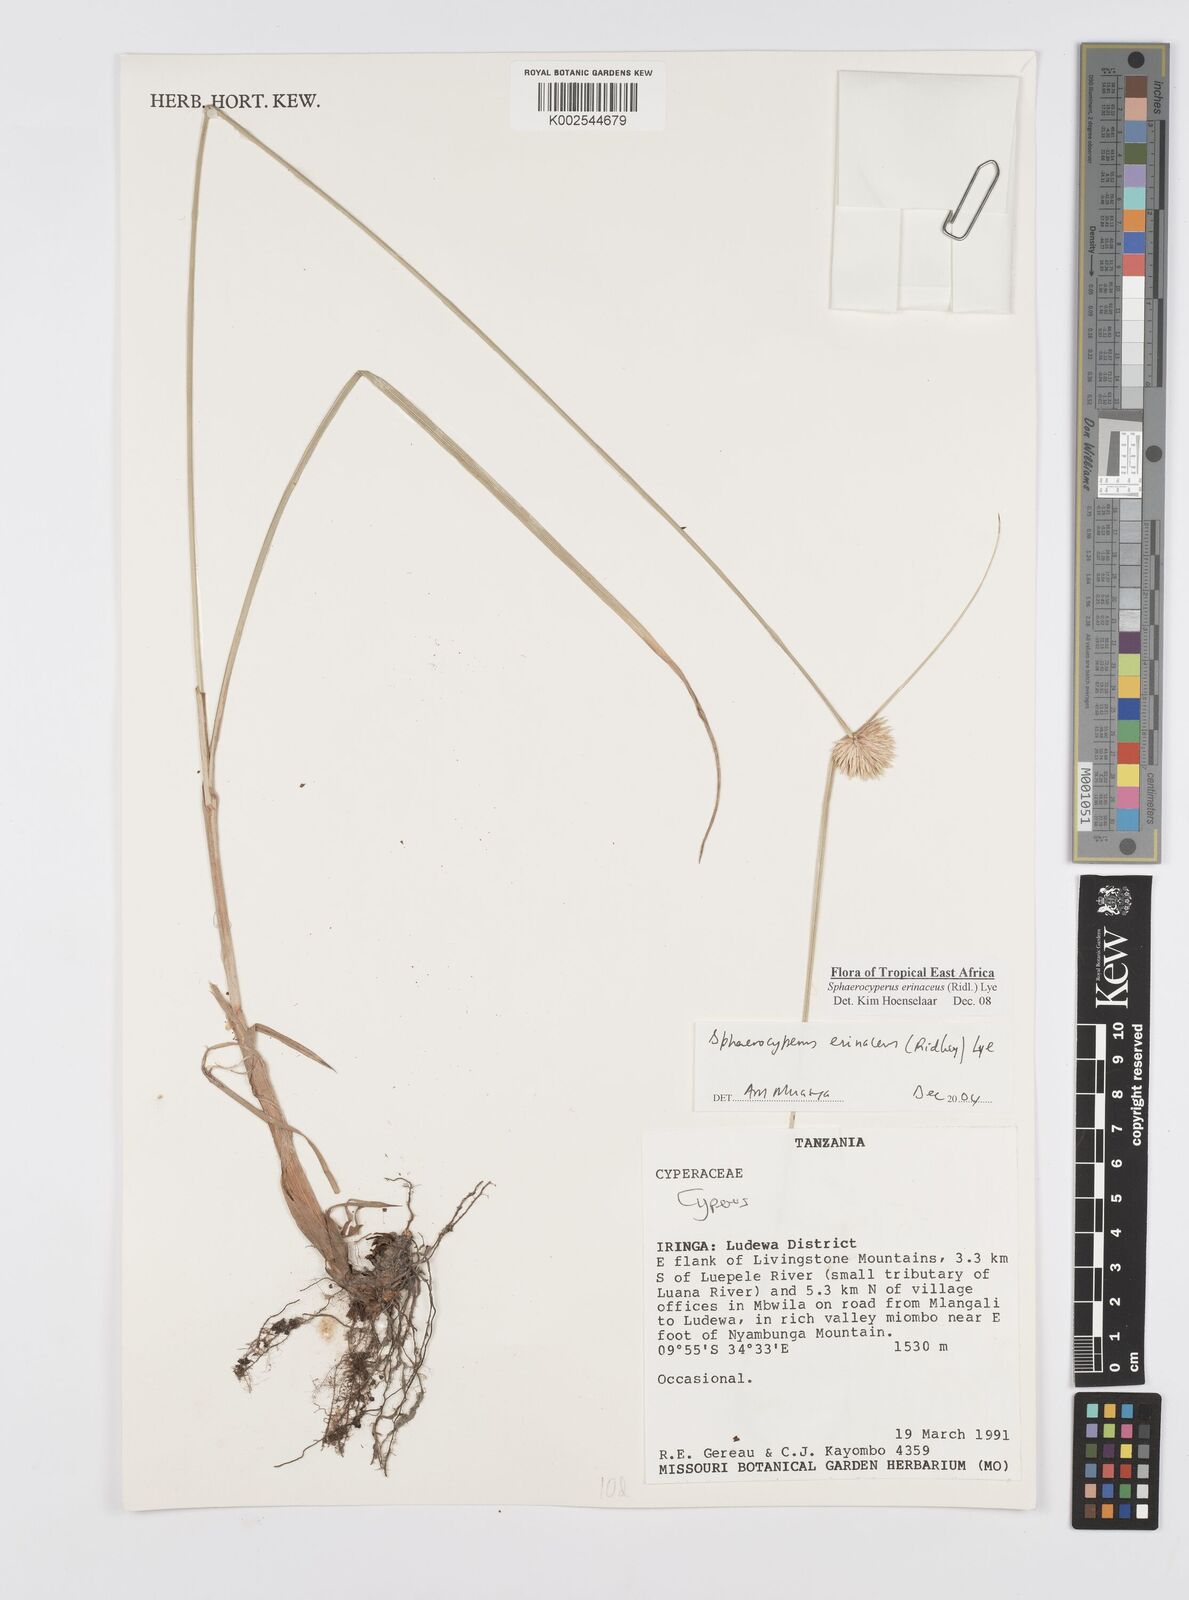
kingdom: Plantae
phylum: Tracheophyta
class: Liliopsida
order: Poales
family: Cyperaceae
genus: Cyperus
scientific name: Cyperus erinaceus
